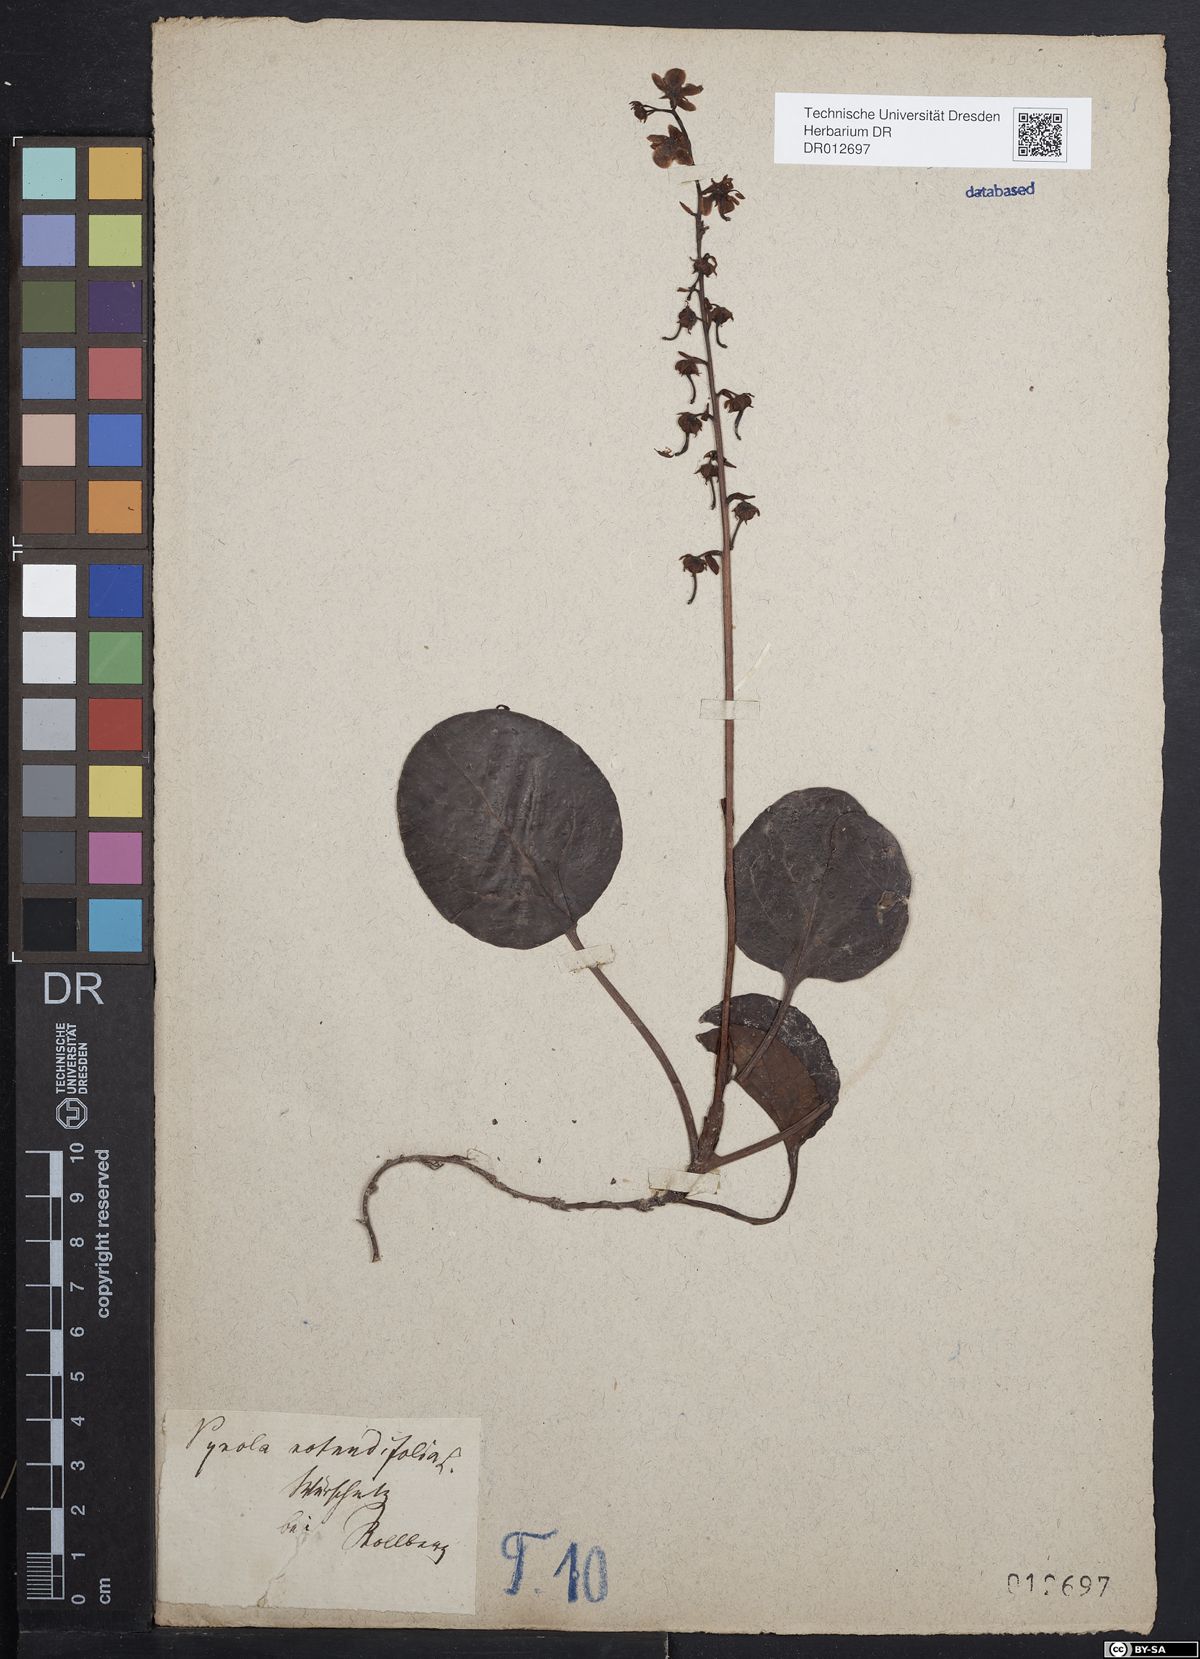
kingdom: Plantae
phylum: Tracheophyta
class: Magnoliopsida
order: Ericales
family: Ericaceae
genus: Pyrola
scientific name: Pyrola rotundifolia
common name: Round-leaved wintergreen
